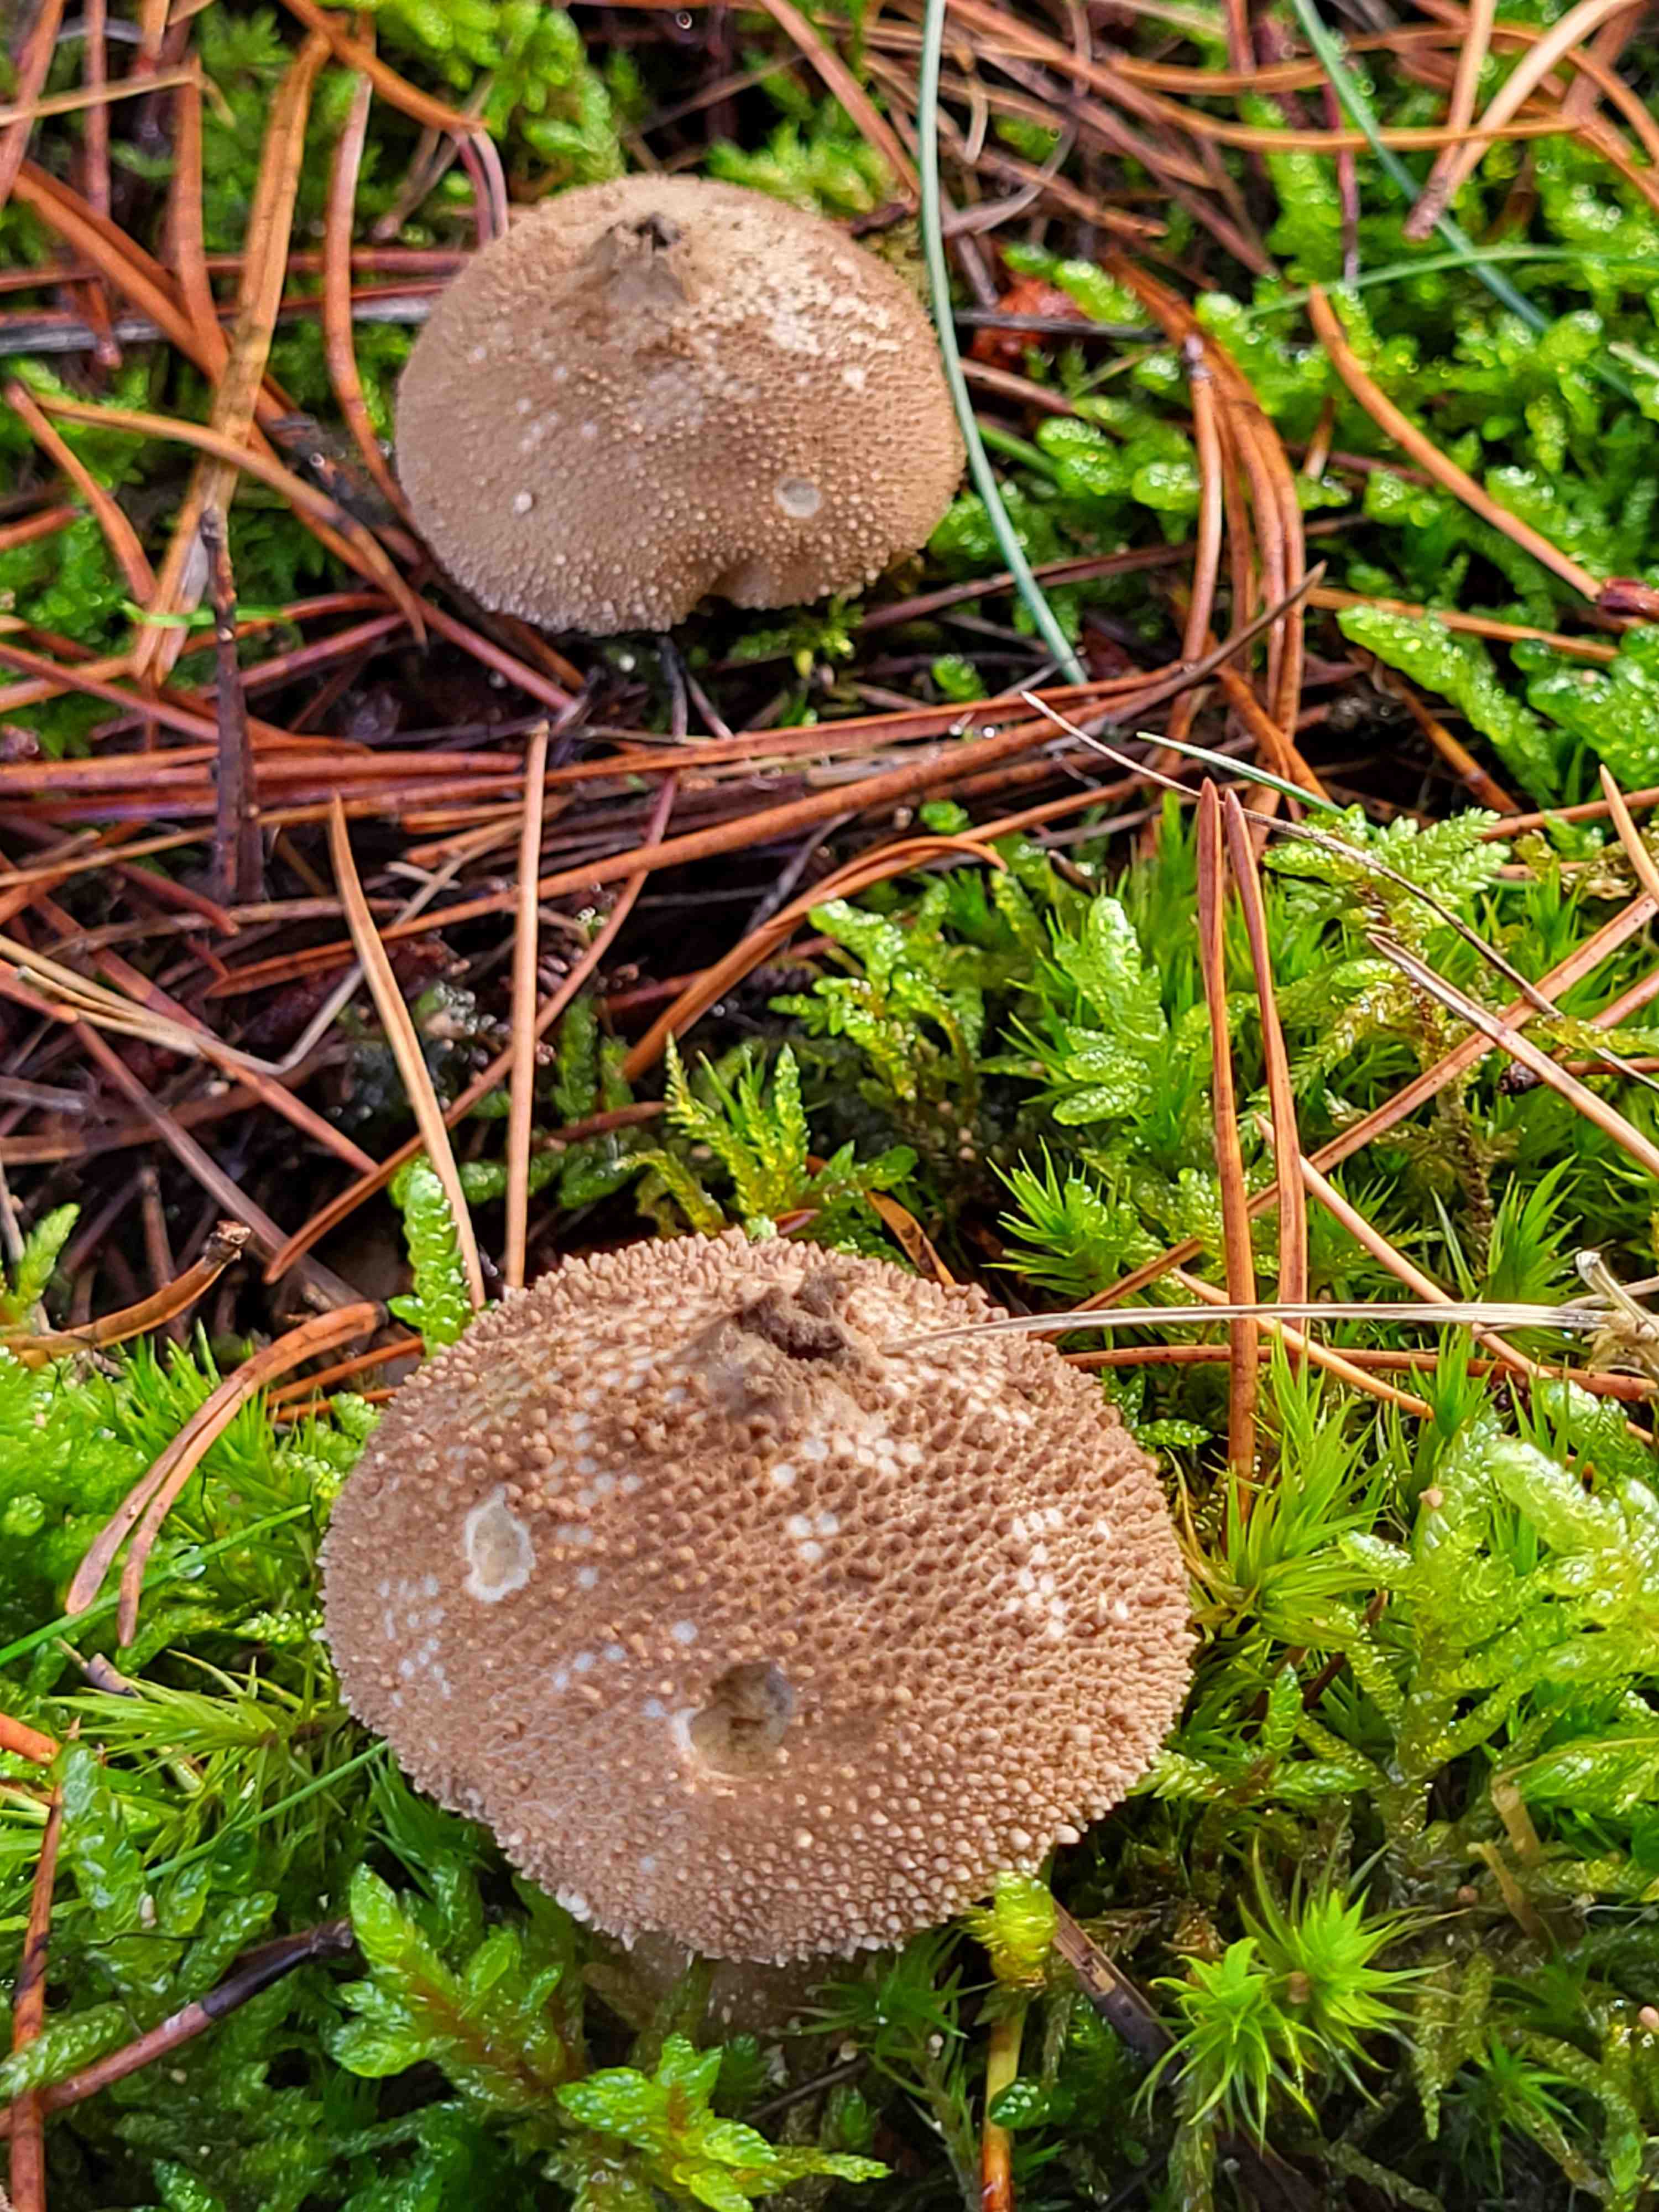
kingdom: Fungi
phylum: Basidiomycota
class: Agaricomycetes
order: Agaricales
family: Lycoperdaceae
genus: Lycoperdon
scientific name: Lycoperdon perlatum
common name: krystal-støvbold
